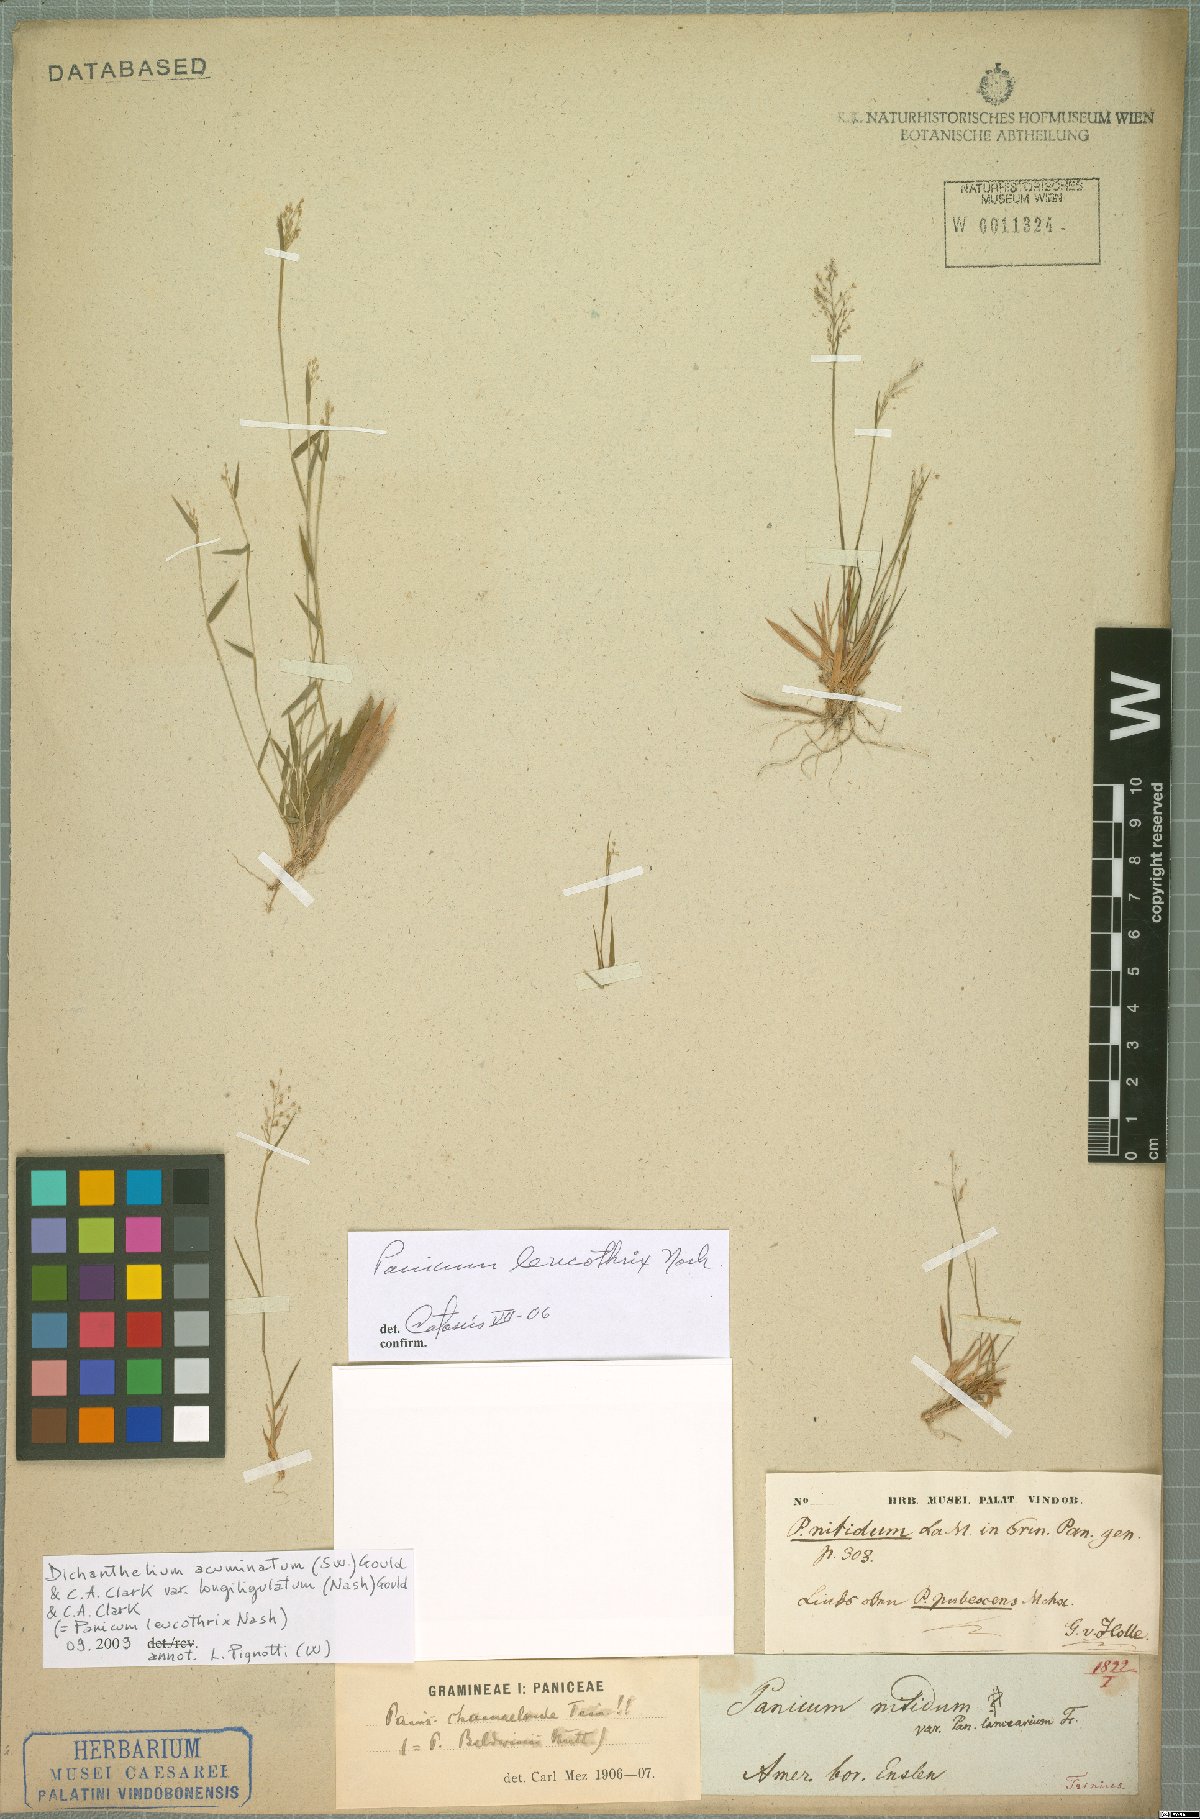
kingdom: Plantae
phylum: Tracheophyta
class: Liliopsida
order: Poales
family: Poaceae
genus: Dichanthelium
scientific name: Dichanthelium longiligulatum
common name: Long-ligule panicgrass
